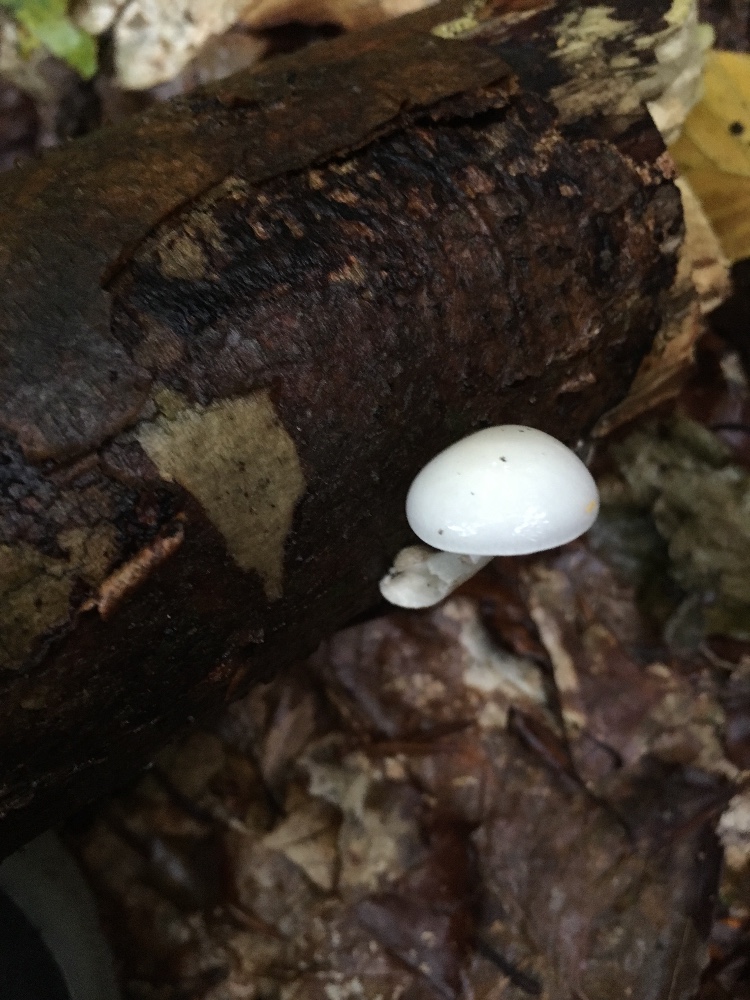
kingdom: Fungi
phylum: Basidiomycota
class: Agaricomycetes
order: Agaricales
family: Physalacriaceae
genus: Mucidula
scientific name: Mucidula mucida
